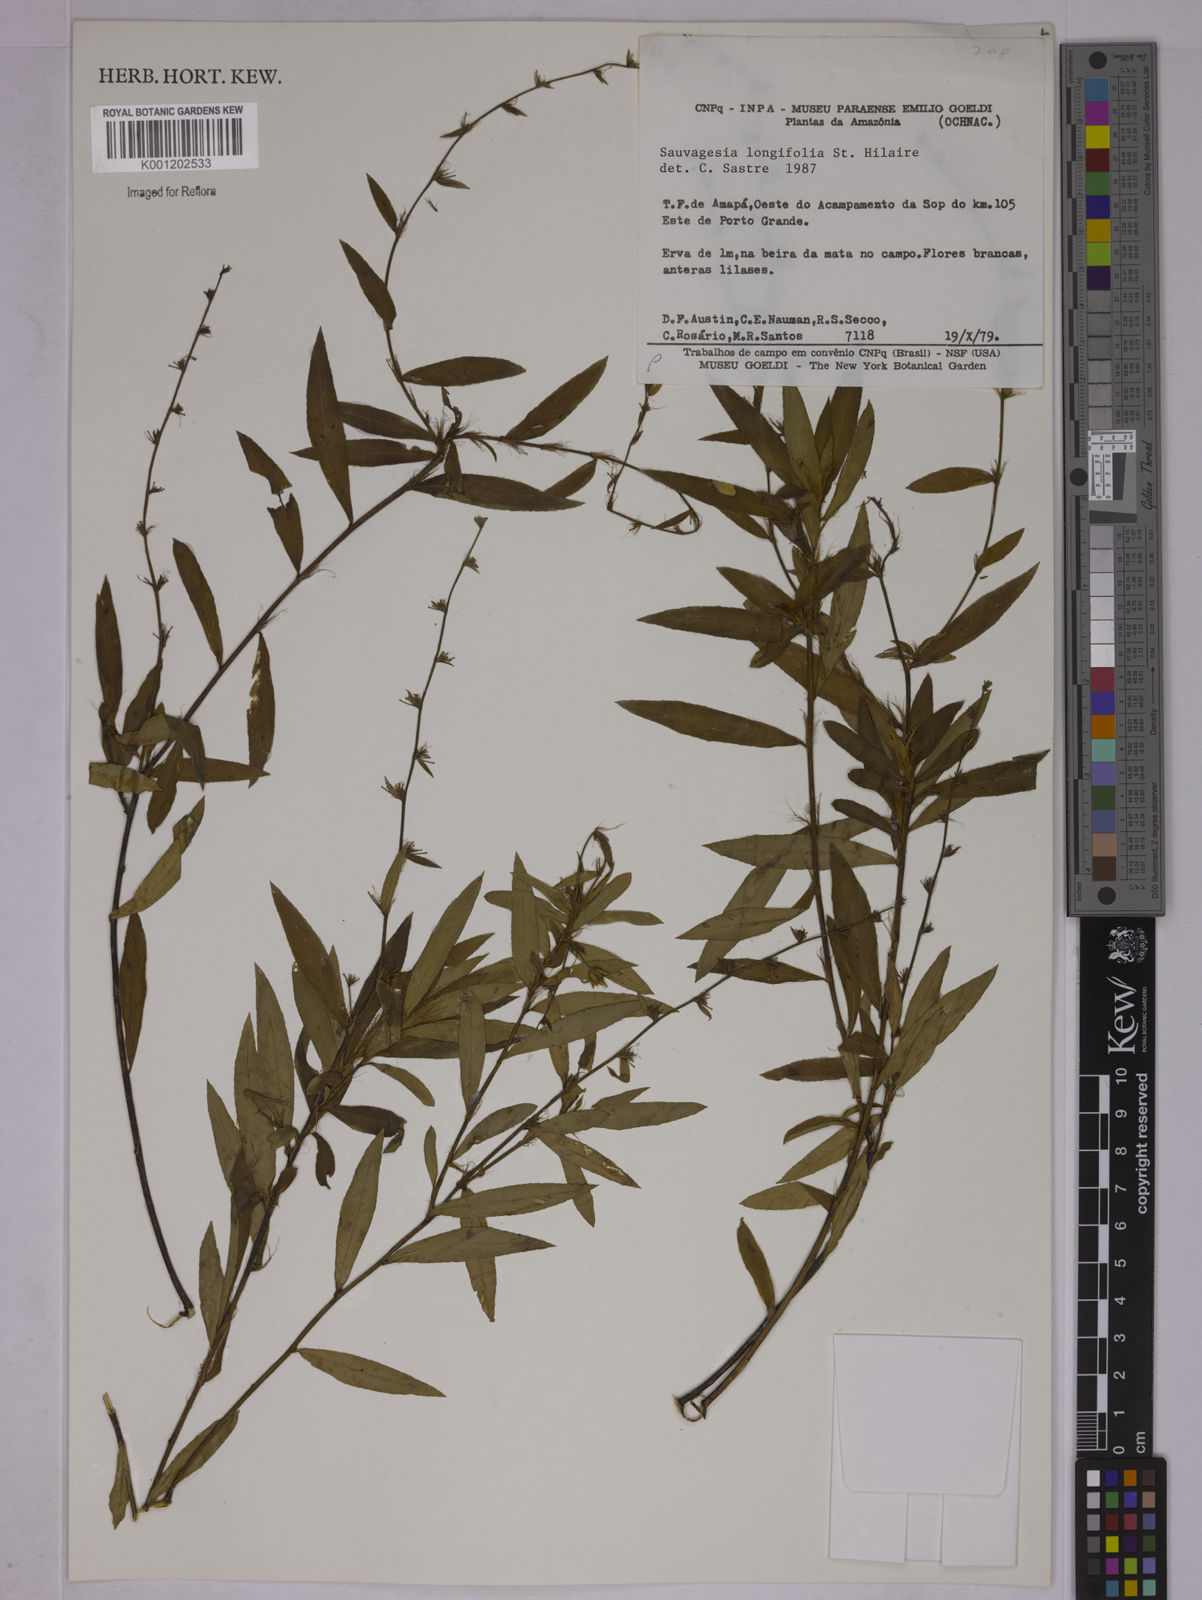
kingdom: Plantae
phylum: Tracheophyta
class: Magnoliopsida
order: Malpighiales
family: Ochnaceae
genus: Sauvagesia
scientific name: Sauvagesia longifolia
